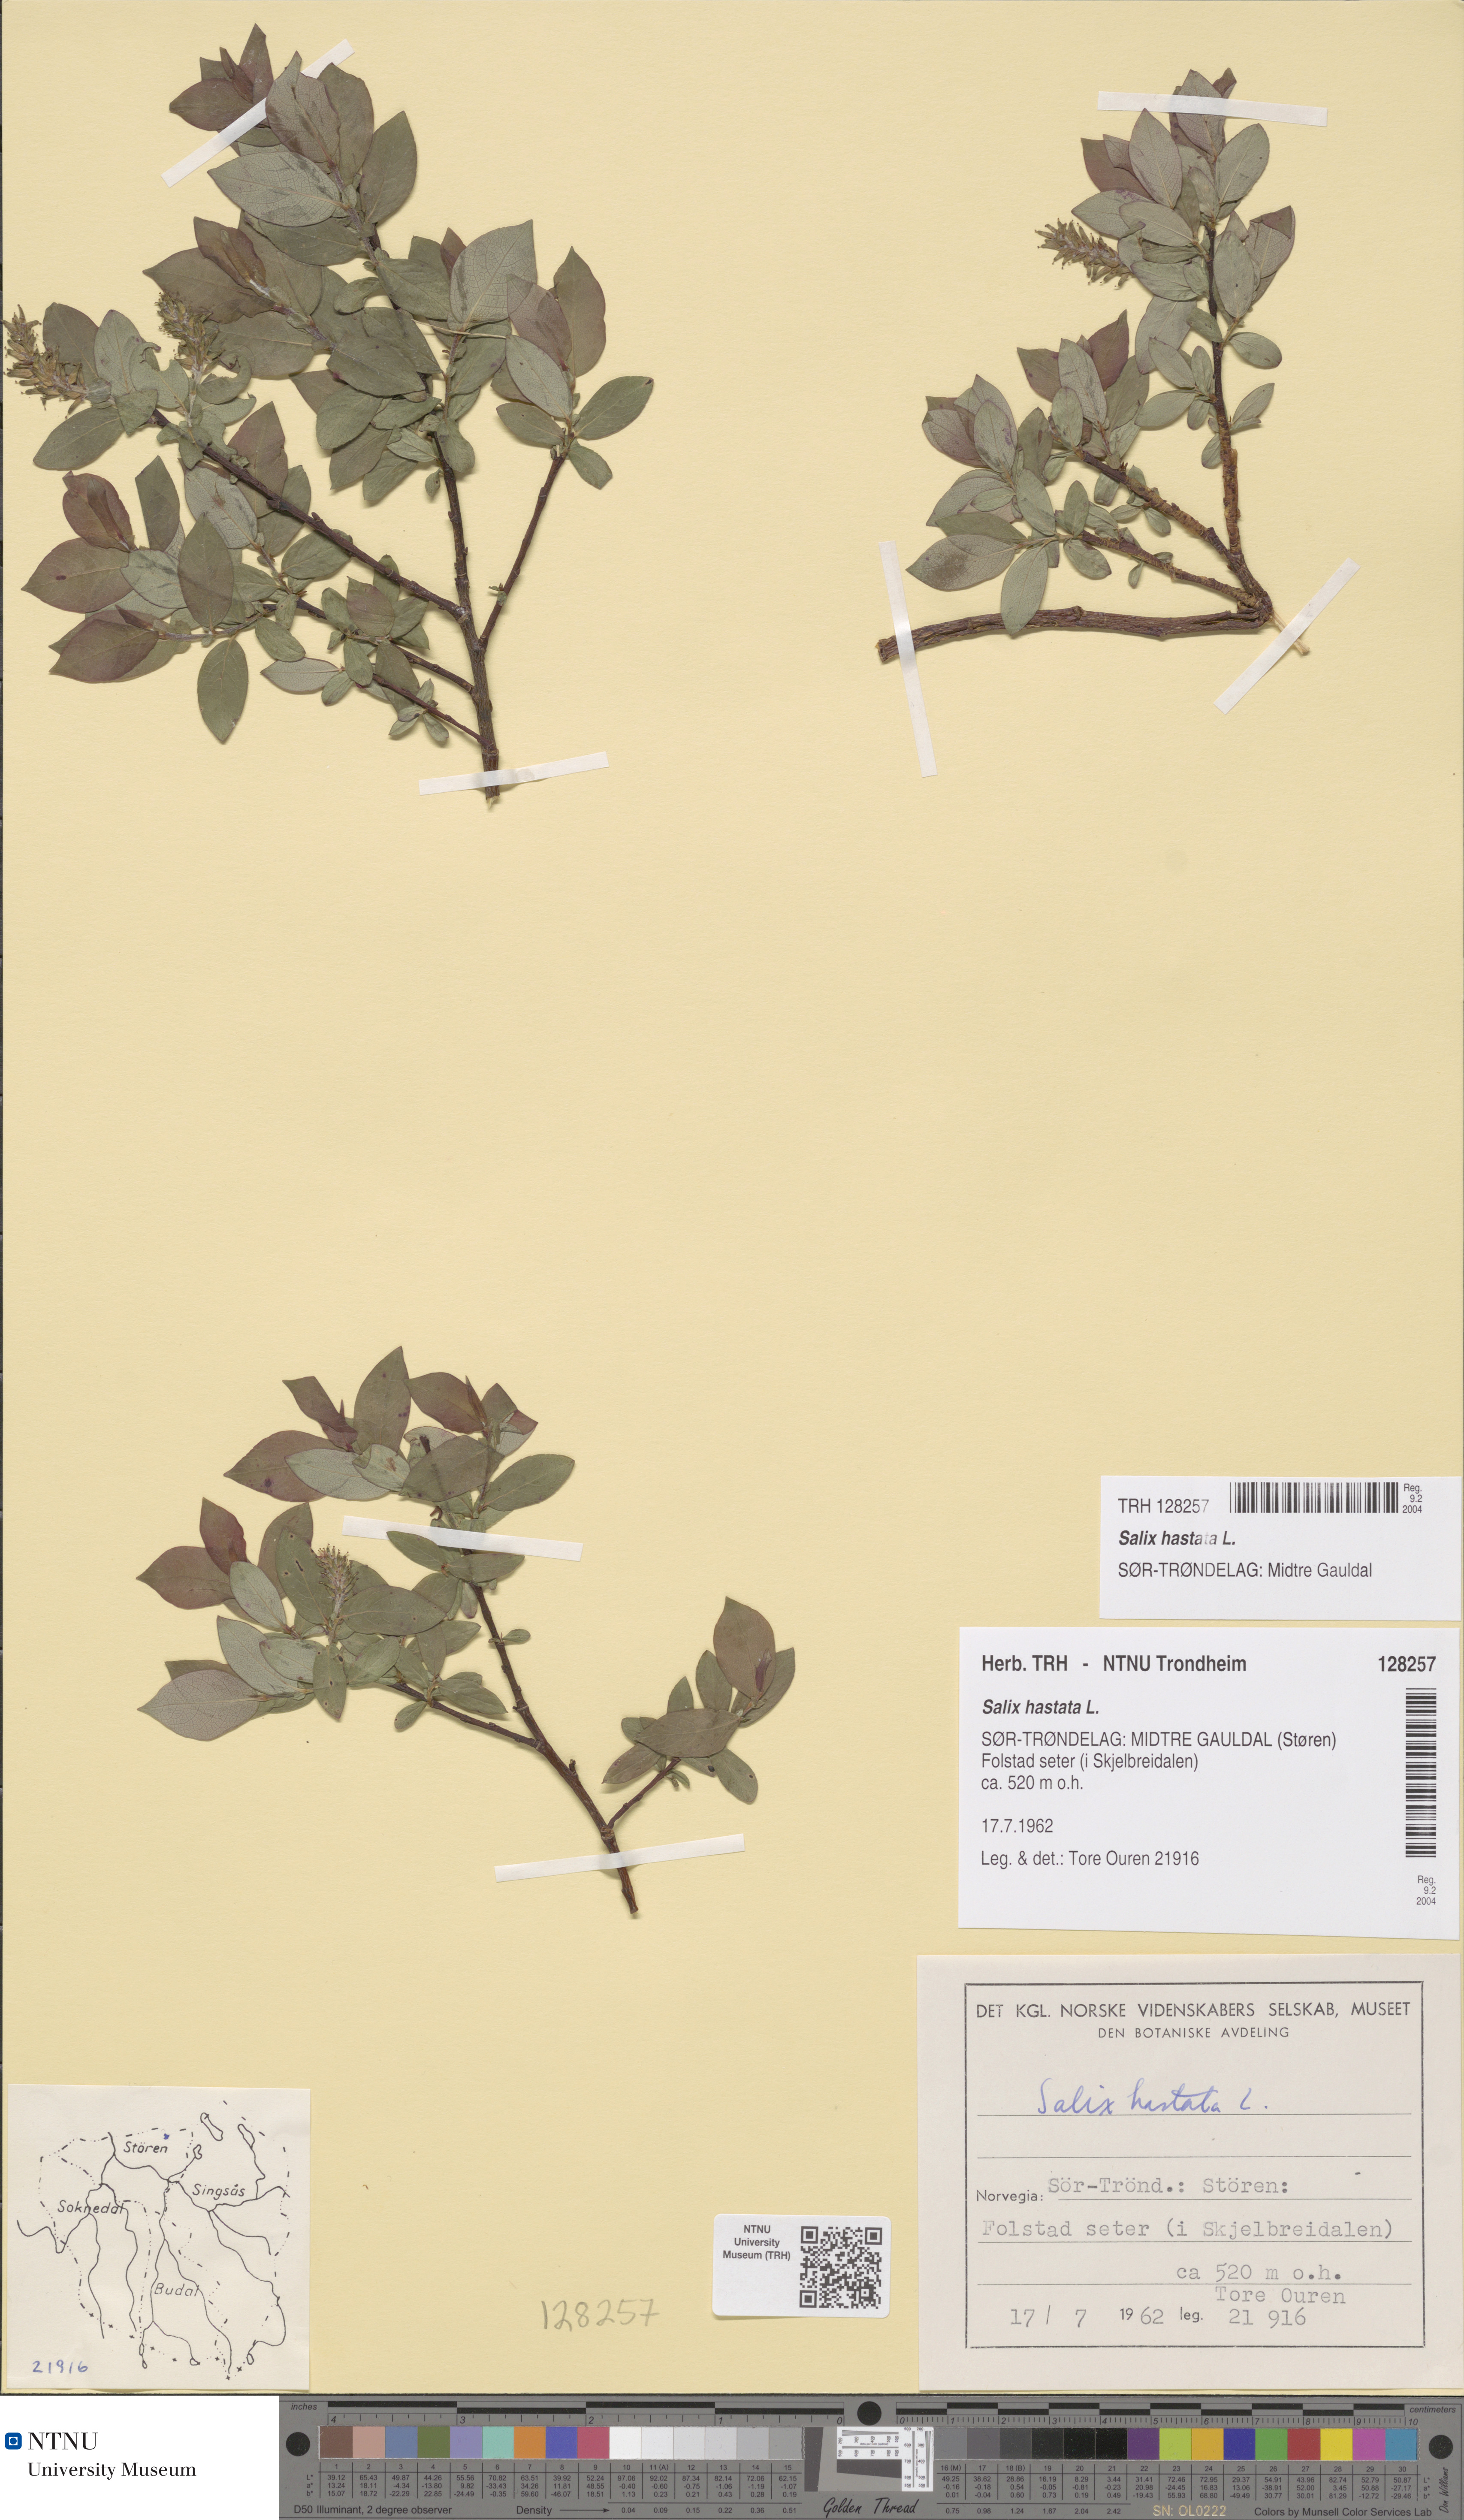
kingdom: Plantae
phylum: Tracheophyta
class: Magnoliopsida
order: Malpighiales
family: Salicaceae
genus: Salix
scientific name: Salix hastata
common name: Halberd willow
